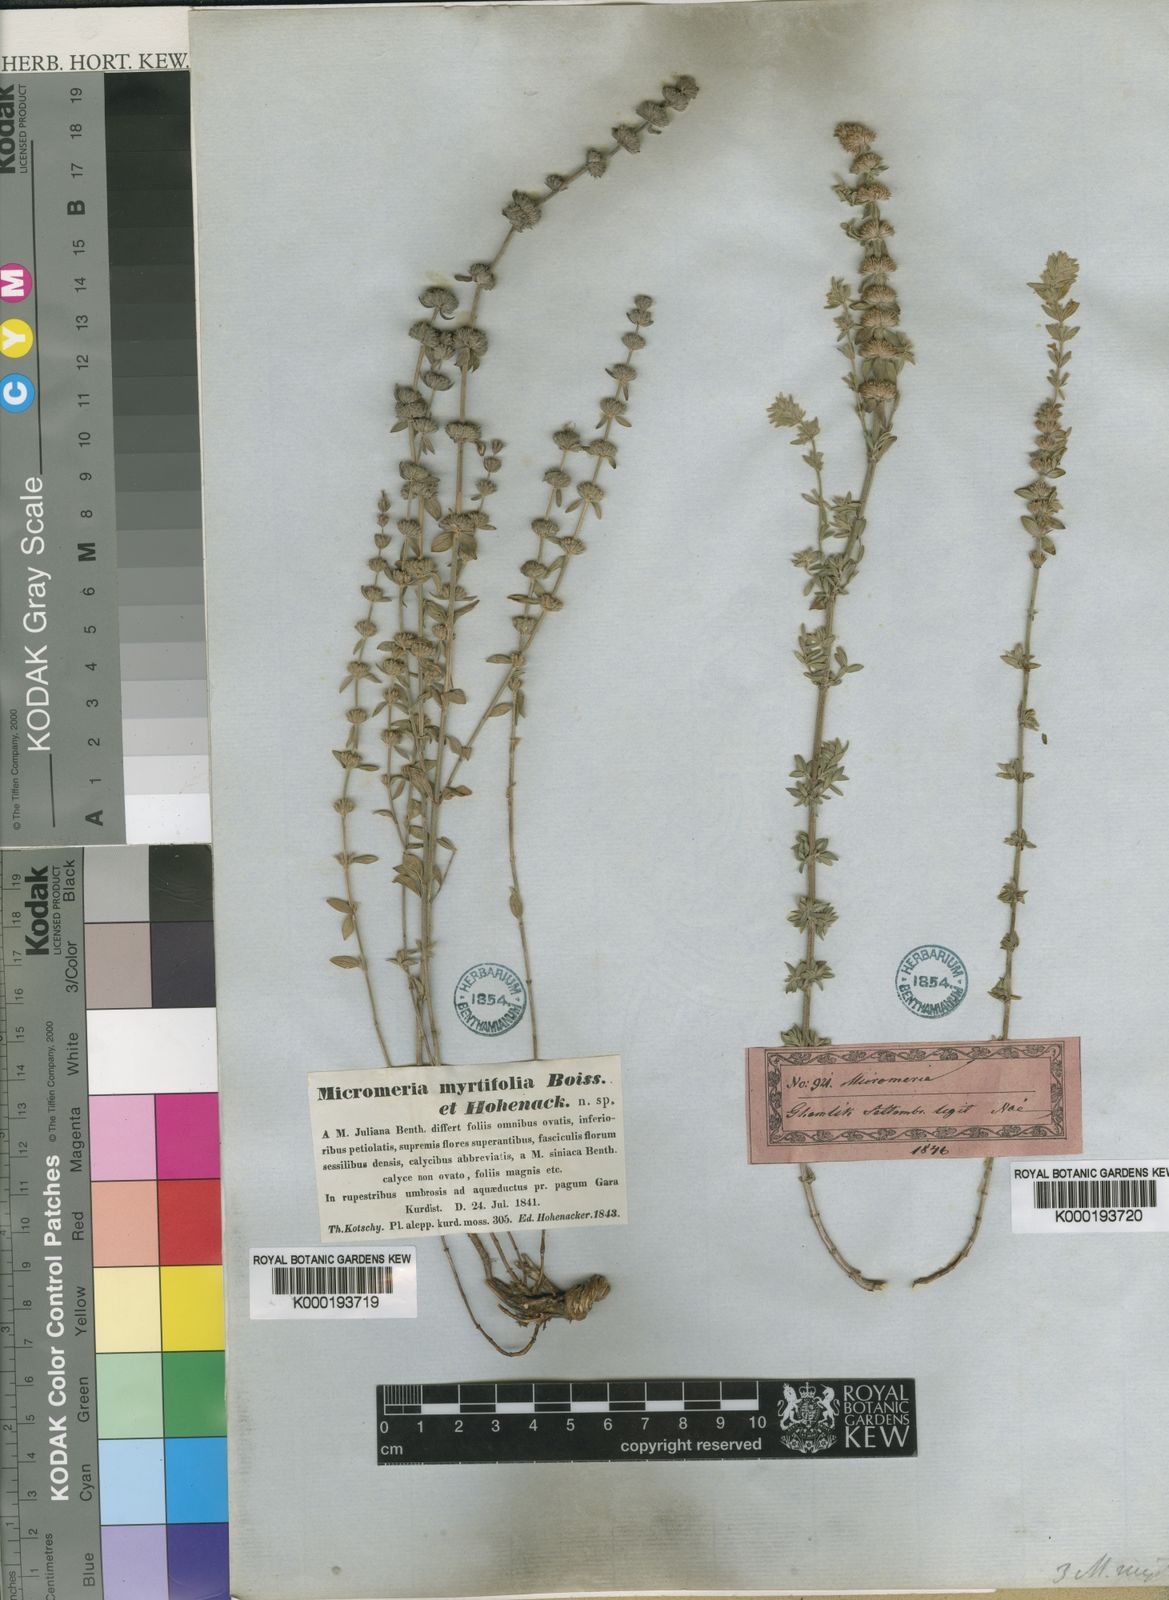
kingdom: Plantae
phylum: Tracheophyta
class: Magnoliopsida
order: Lamiales
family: Lamiaceae
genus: Micromeria
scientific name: Micromeria myrtifolia
